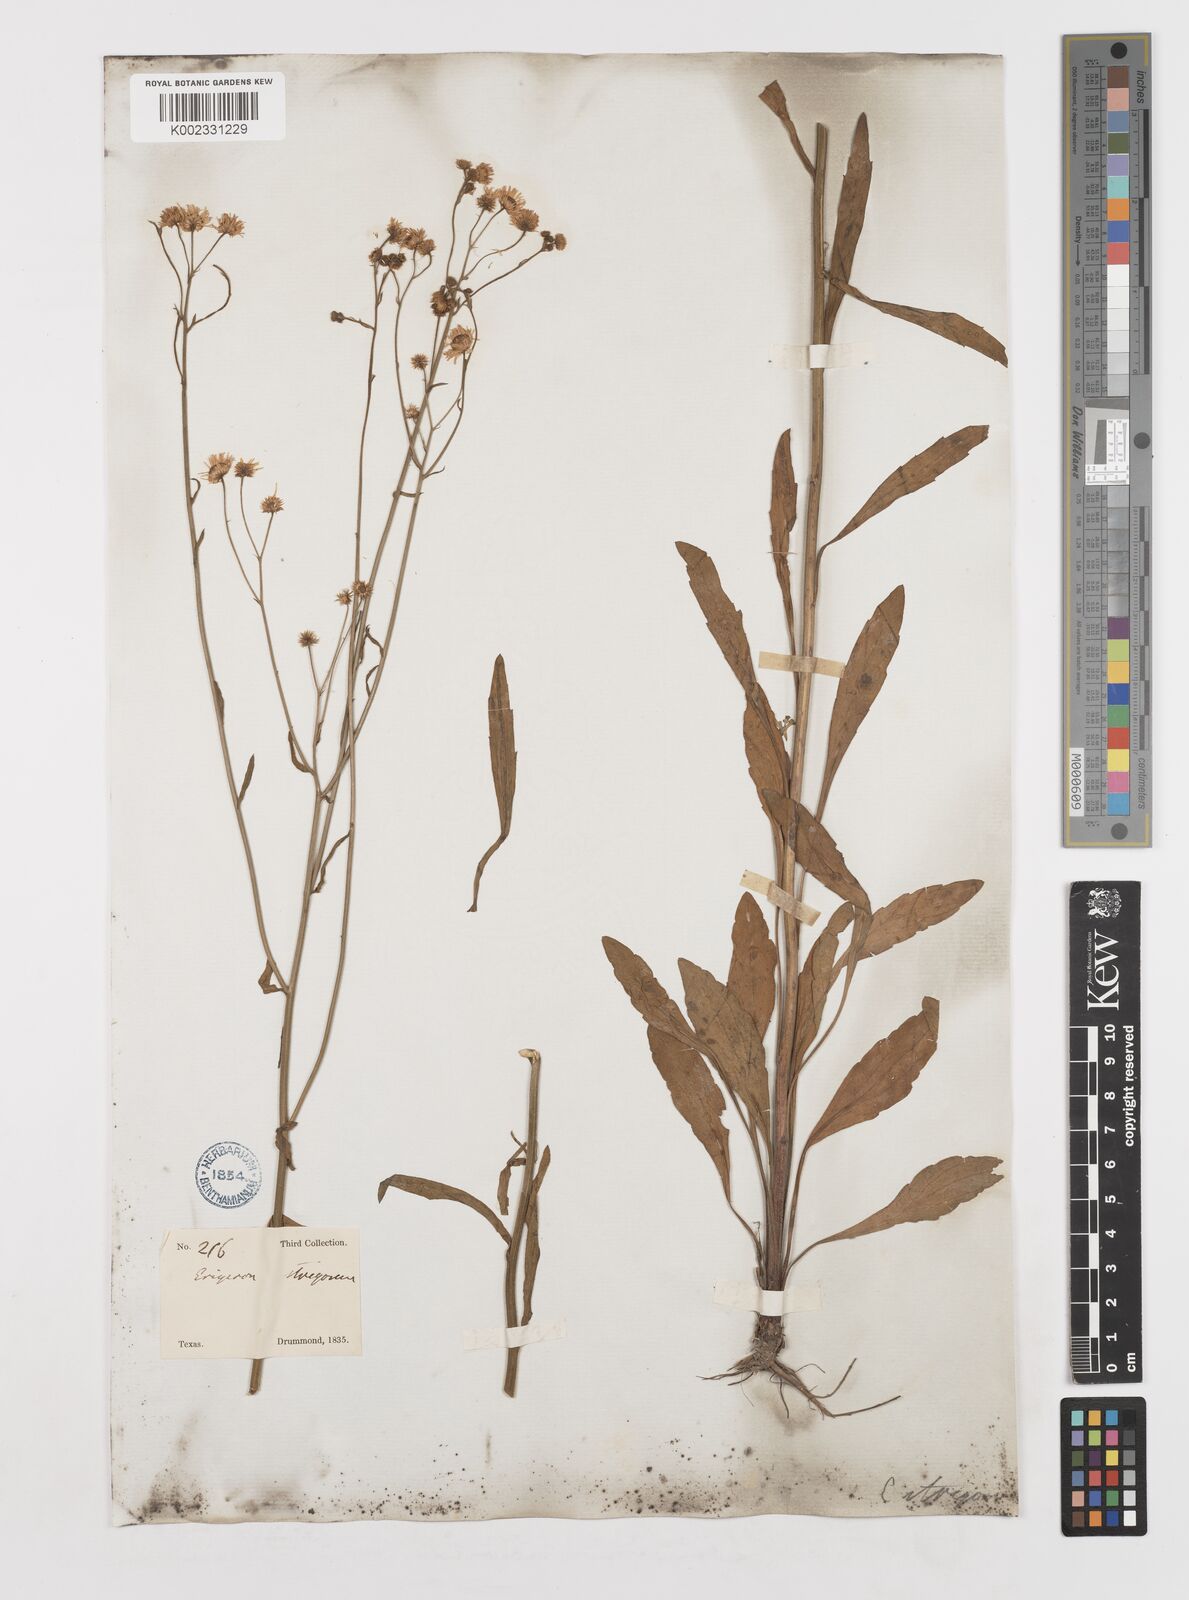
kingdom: Plantae
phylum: Tracheophyta
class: Magnoliopsida
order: Asterales
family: Asteraceae
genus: Erigeron
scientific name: Erigeron strigosus
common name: Common eastern fleabane
